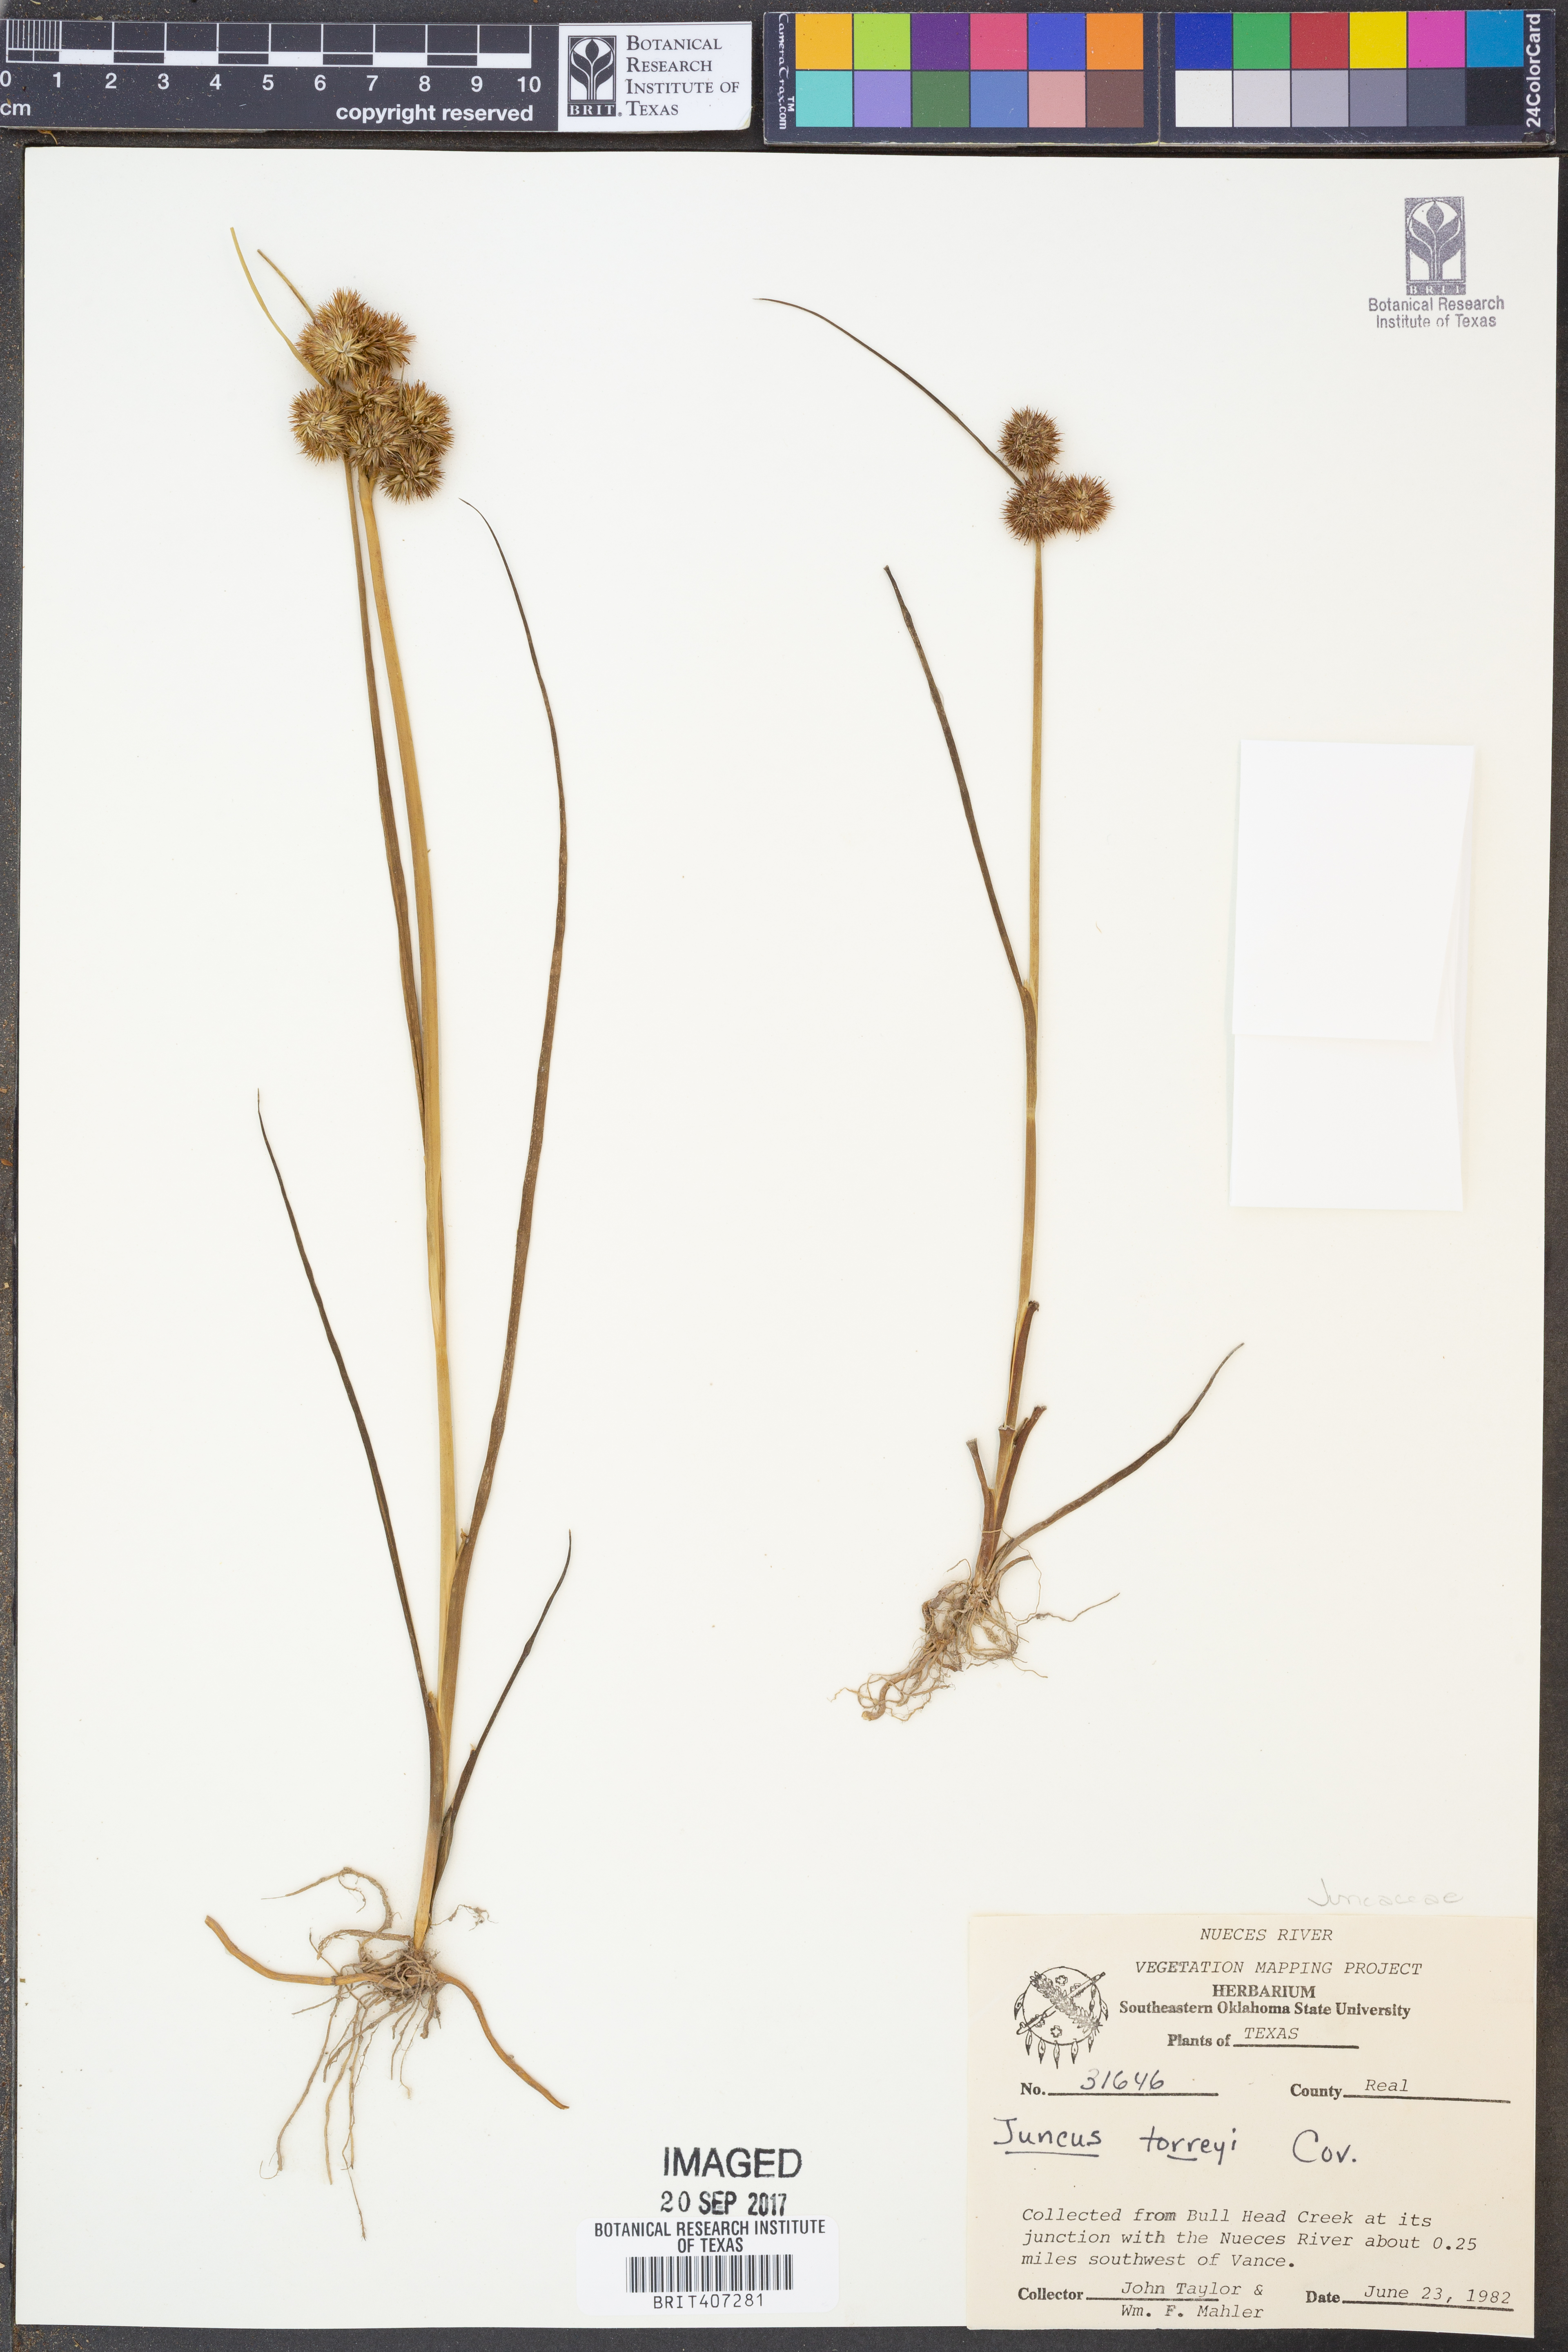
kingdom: Plantae
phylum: Tracheophyta
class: Liliopsida
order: Poales
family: Juncaceae
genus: Juncus
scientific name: Juncus torreyi
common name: Torrey's rush
